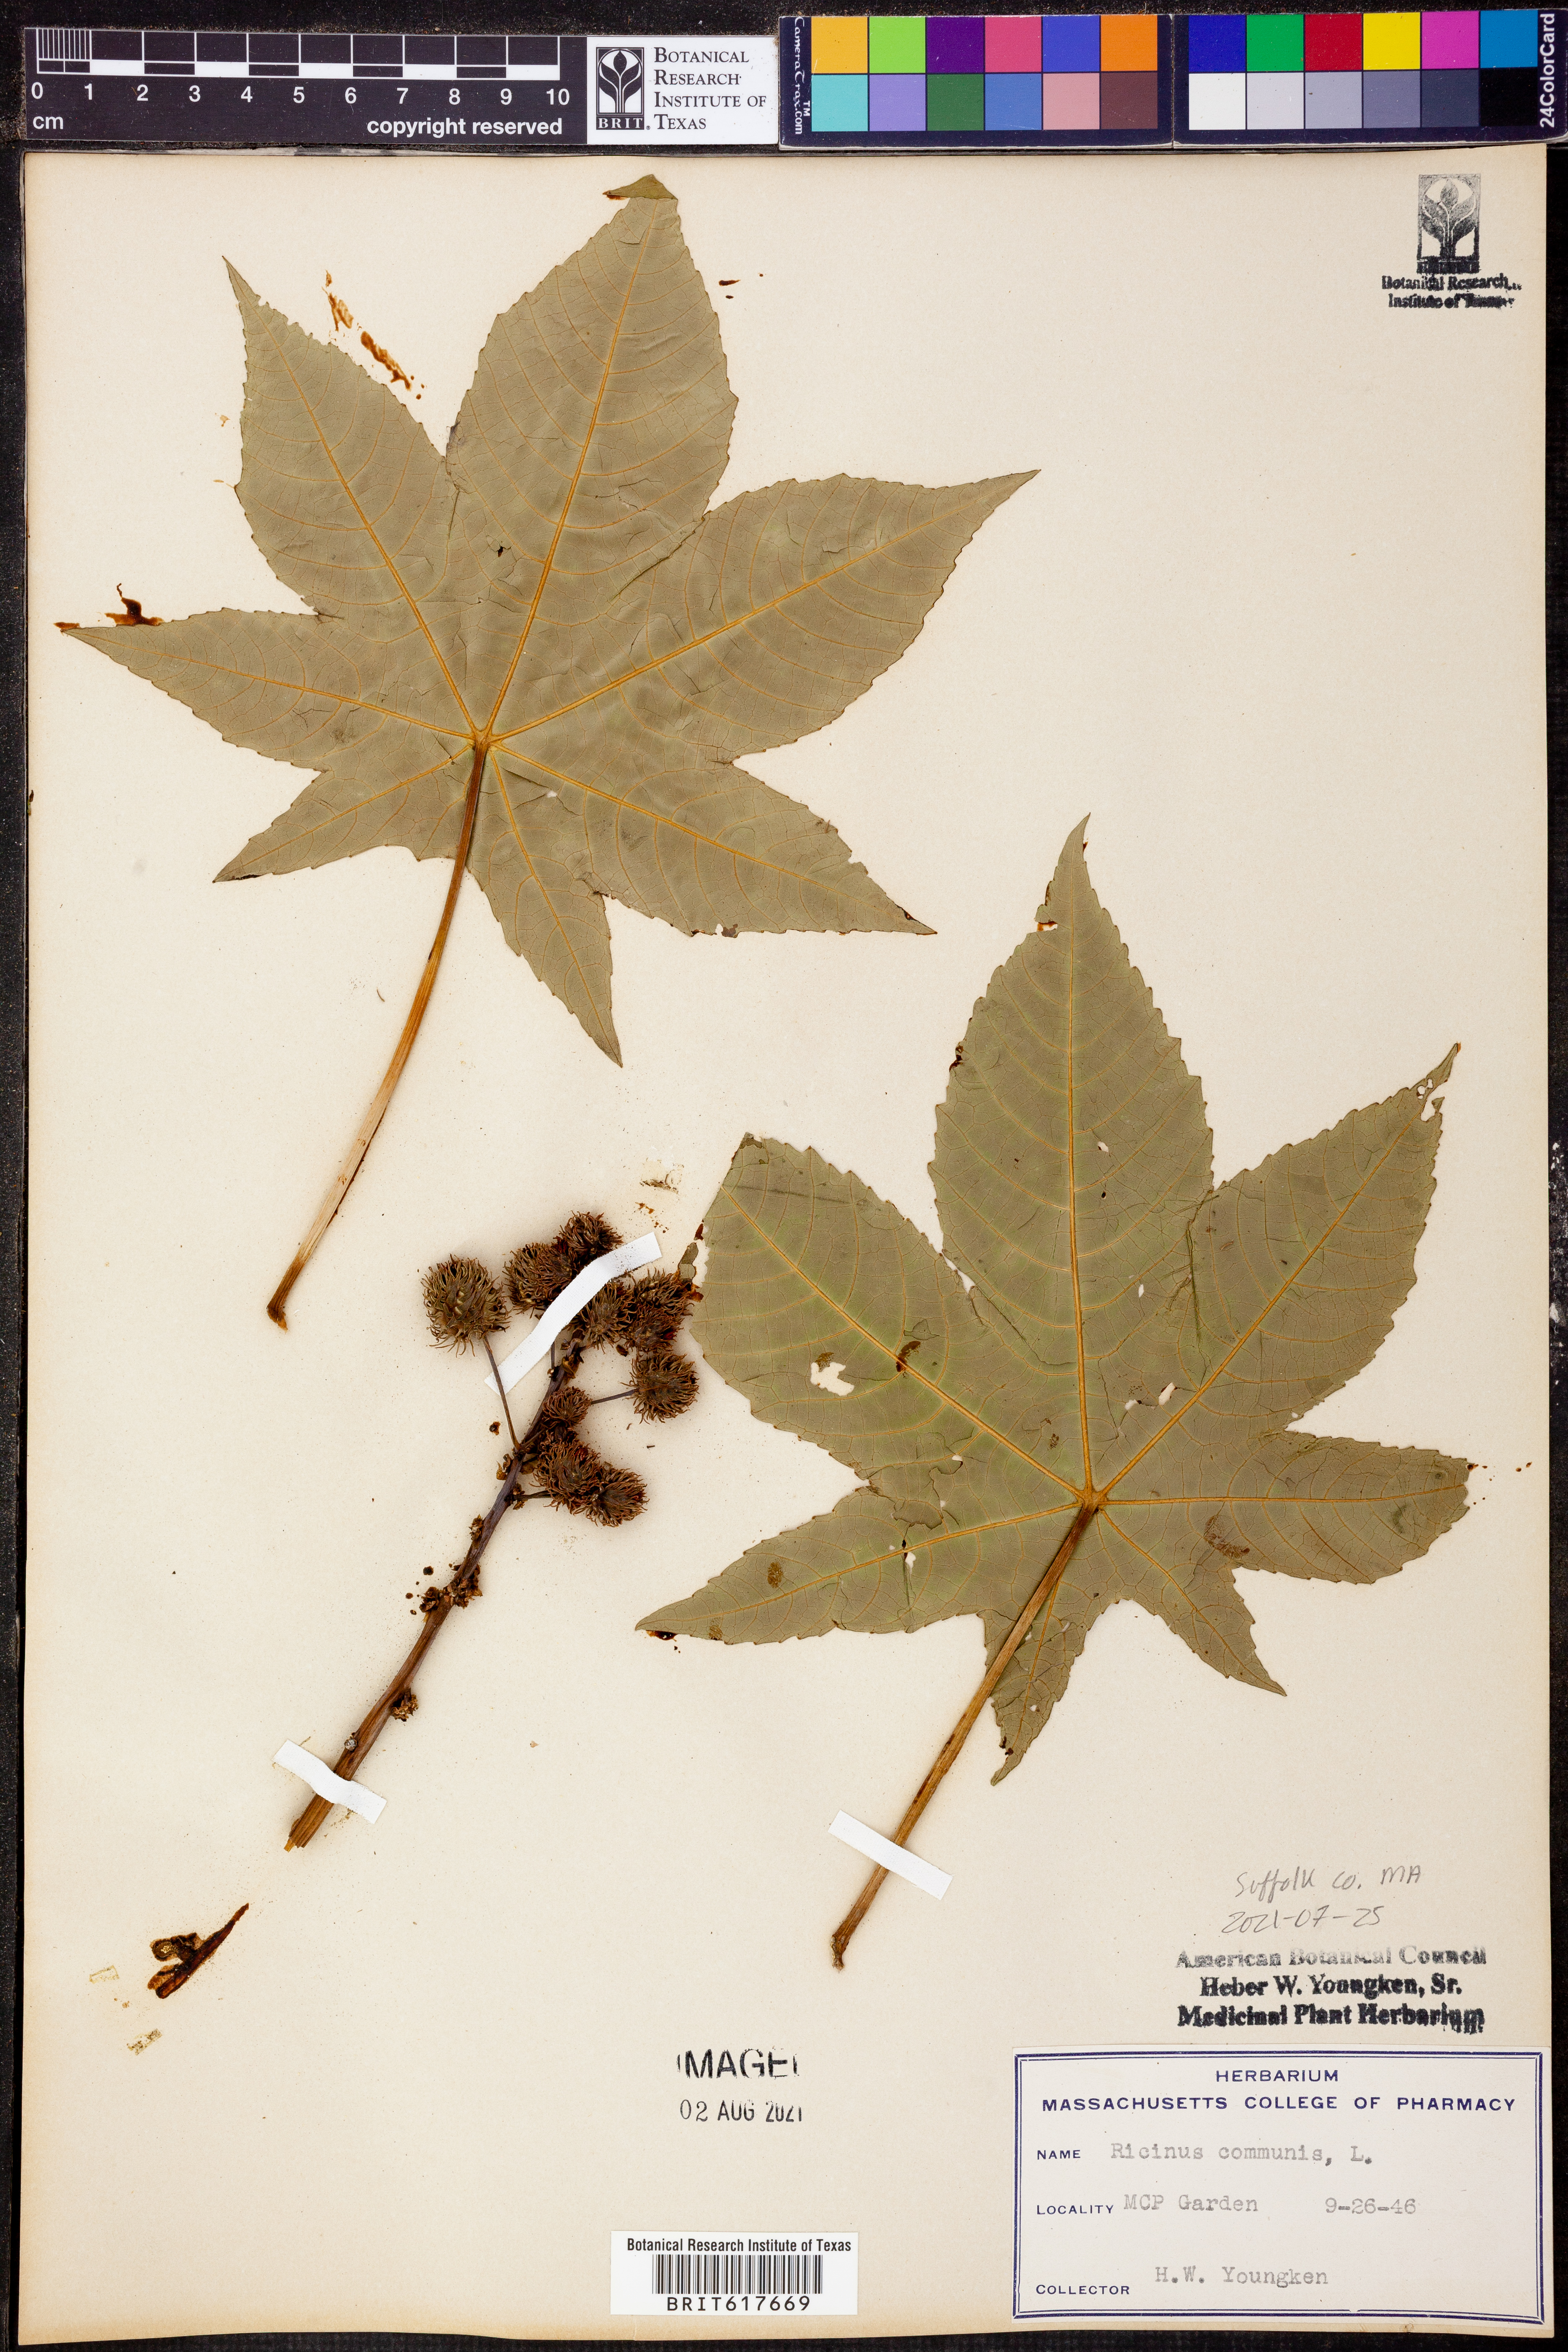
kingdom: Plantae
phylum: Tracheophyta
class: Magnoliopsida
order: Malpighiales
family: Euphorbiaceae
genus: Ricinus
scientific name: Ricinus communis
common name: Castor-oil-plant
